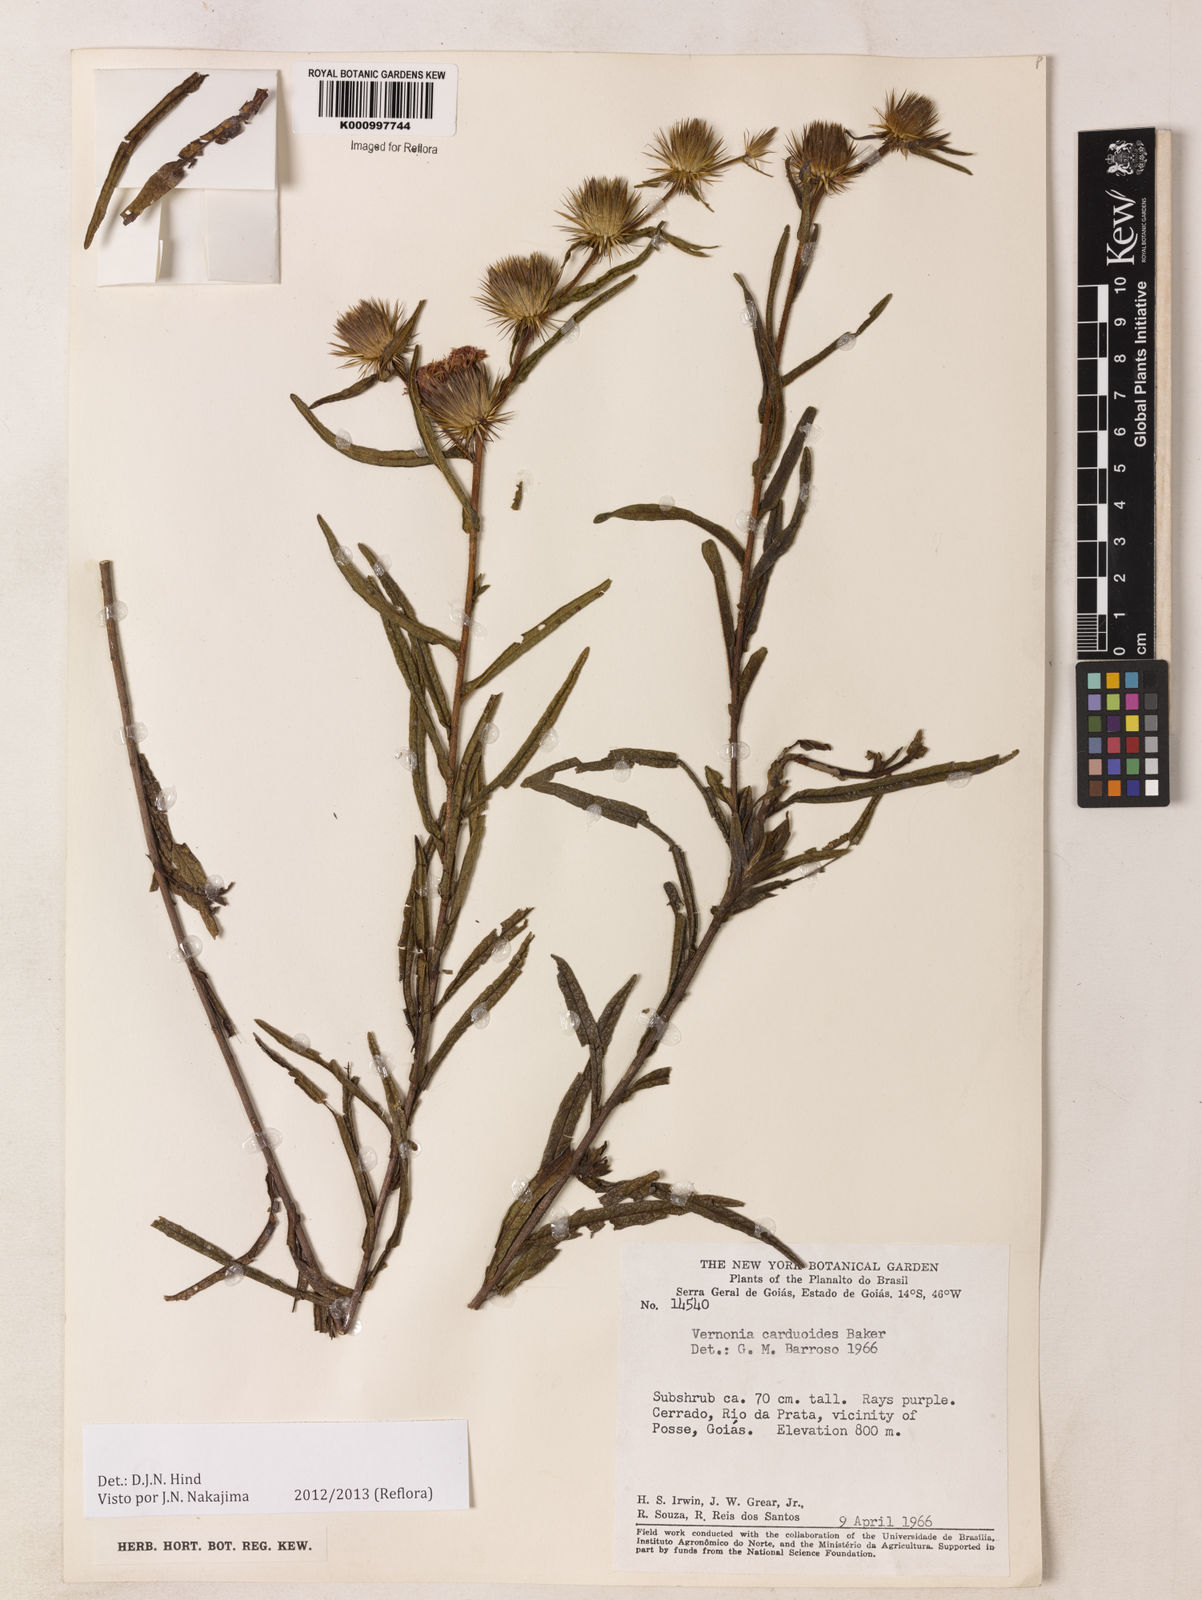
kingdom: Plantae
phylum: Tracheophyta
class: Magnoliopsida
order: Asterales
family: Asteraceae
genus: Lessingianthus
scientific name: Lessingianthus carduoides
